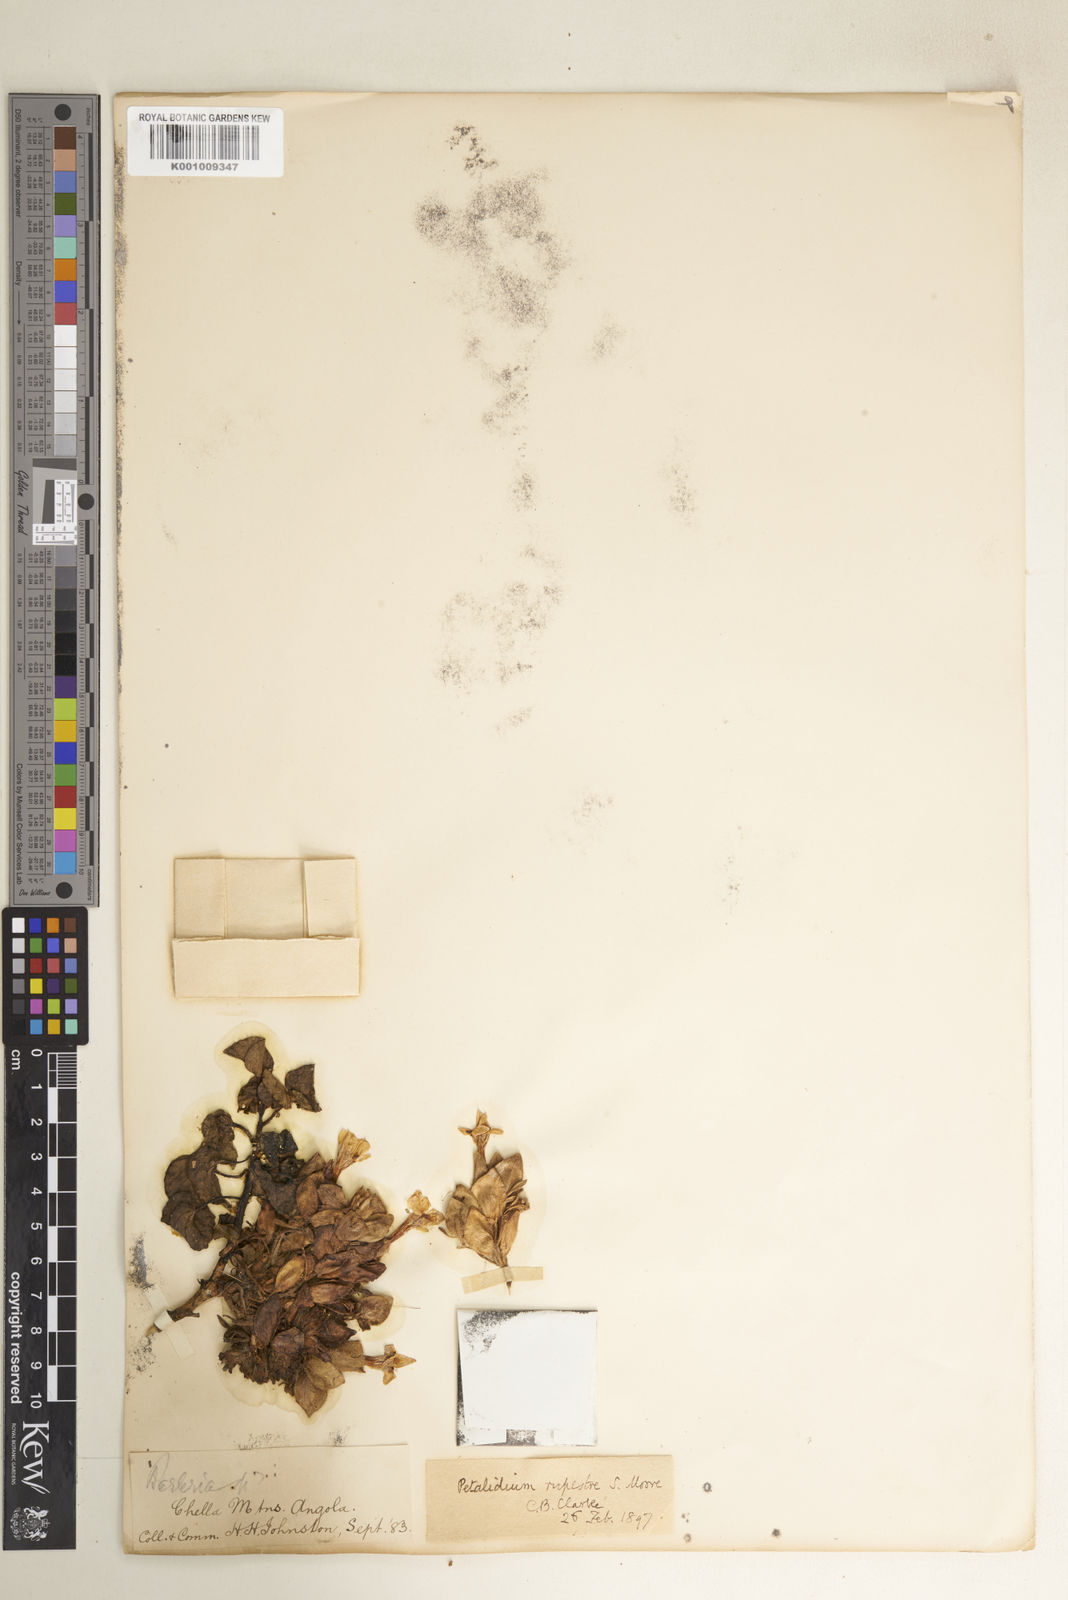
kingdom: Plantae
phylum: Tracheophyta
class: Magnoliopsida
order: Lamiales
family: Acanthaceae
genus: Petalidium
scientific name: Petalidium rupestre
